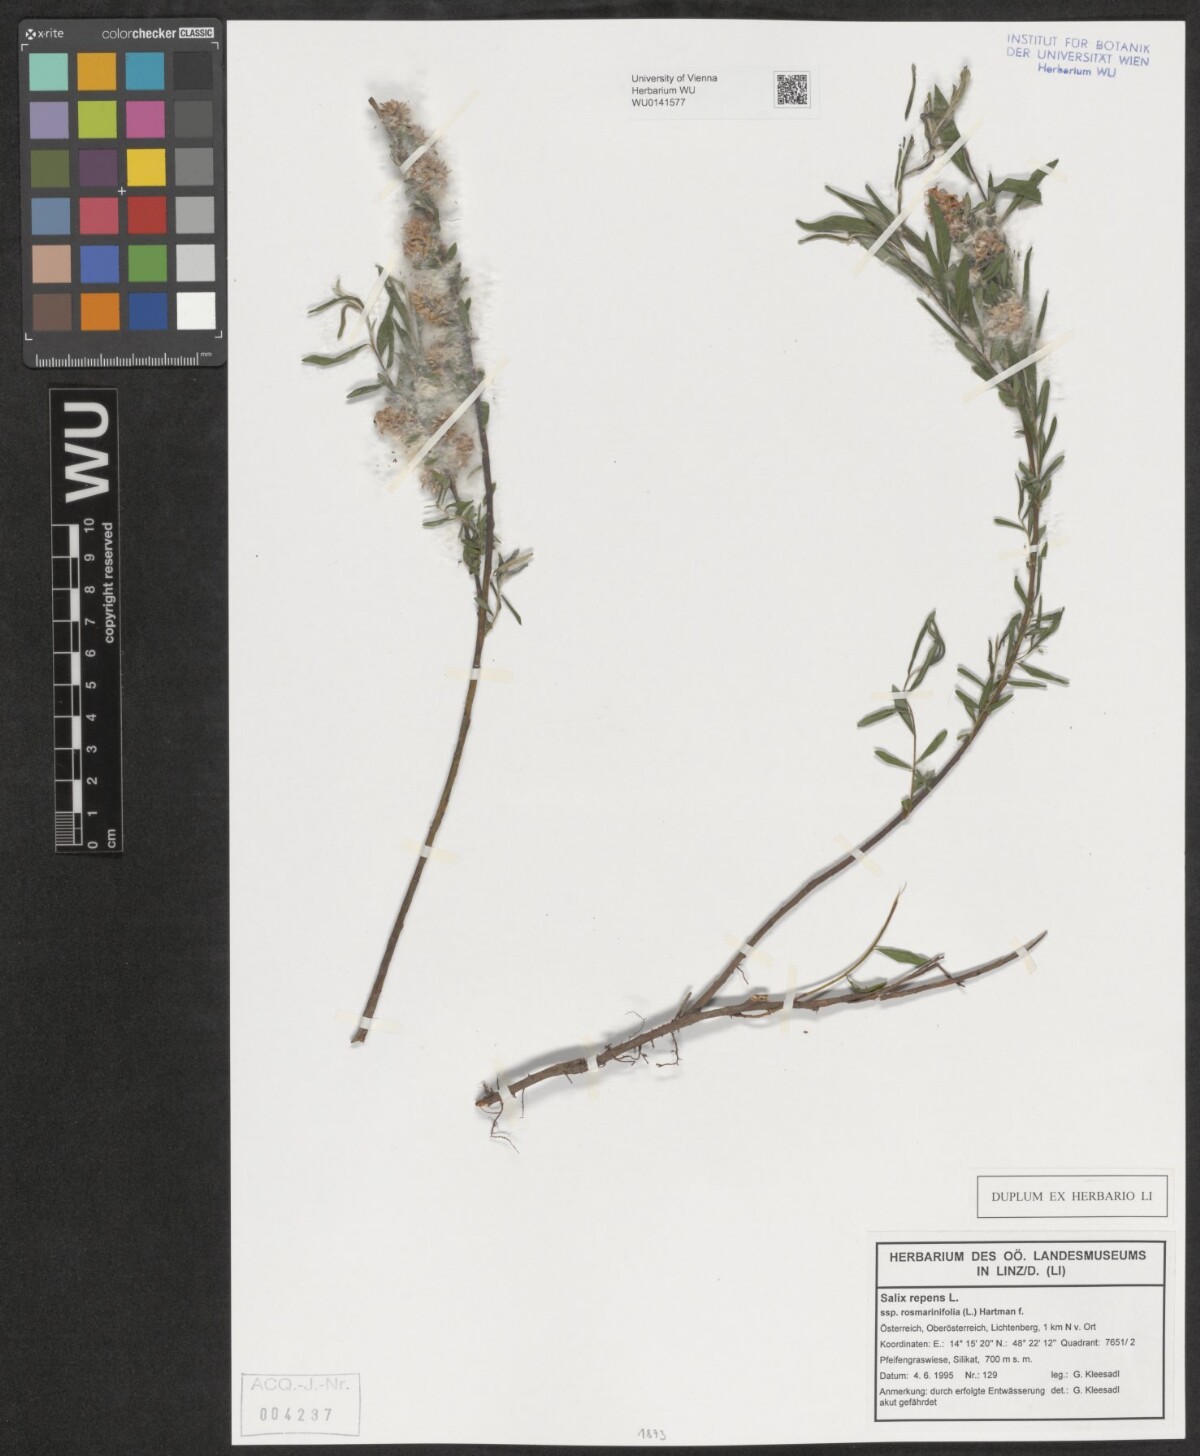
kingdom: Plantae
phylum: Tracheophyta
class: Magnoliopsida
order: Malpighiales
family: Salicaceae
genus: Salix
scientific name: Salix repens
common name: Creeping willow
